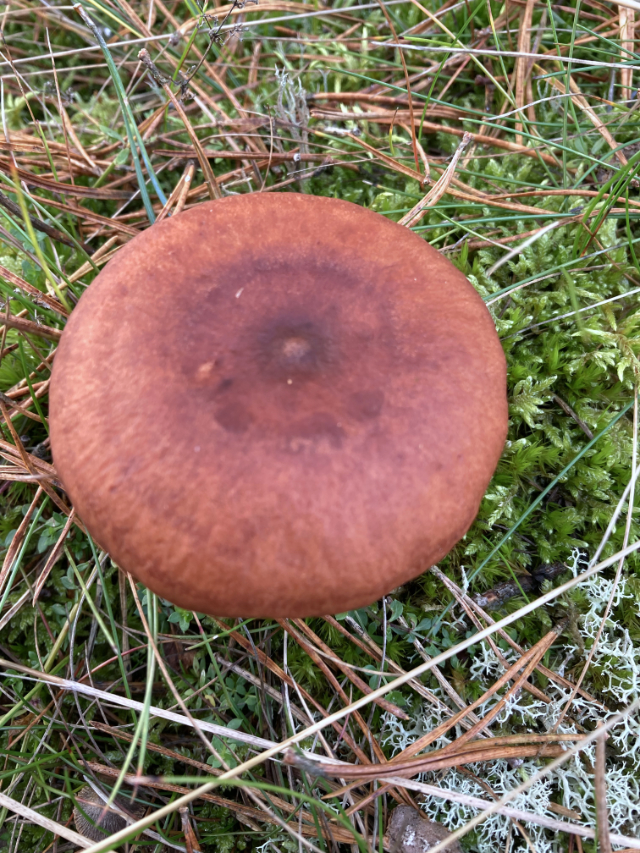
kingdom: Fungi
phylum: Basidiomycota
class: Agaricomycetes
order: Russulales
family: Russulaceae
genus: Lactarius
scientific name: Lactarius rufus
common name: rødbrun mælkehat
